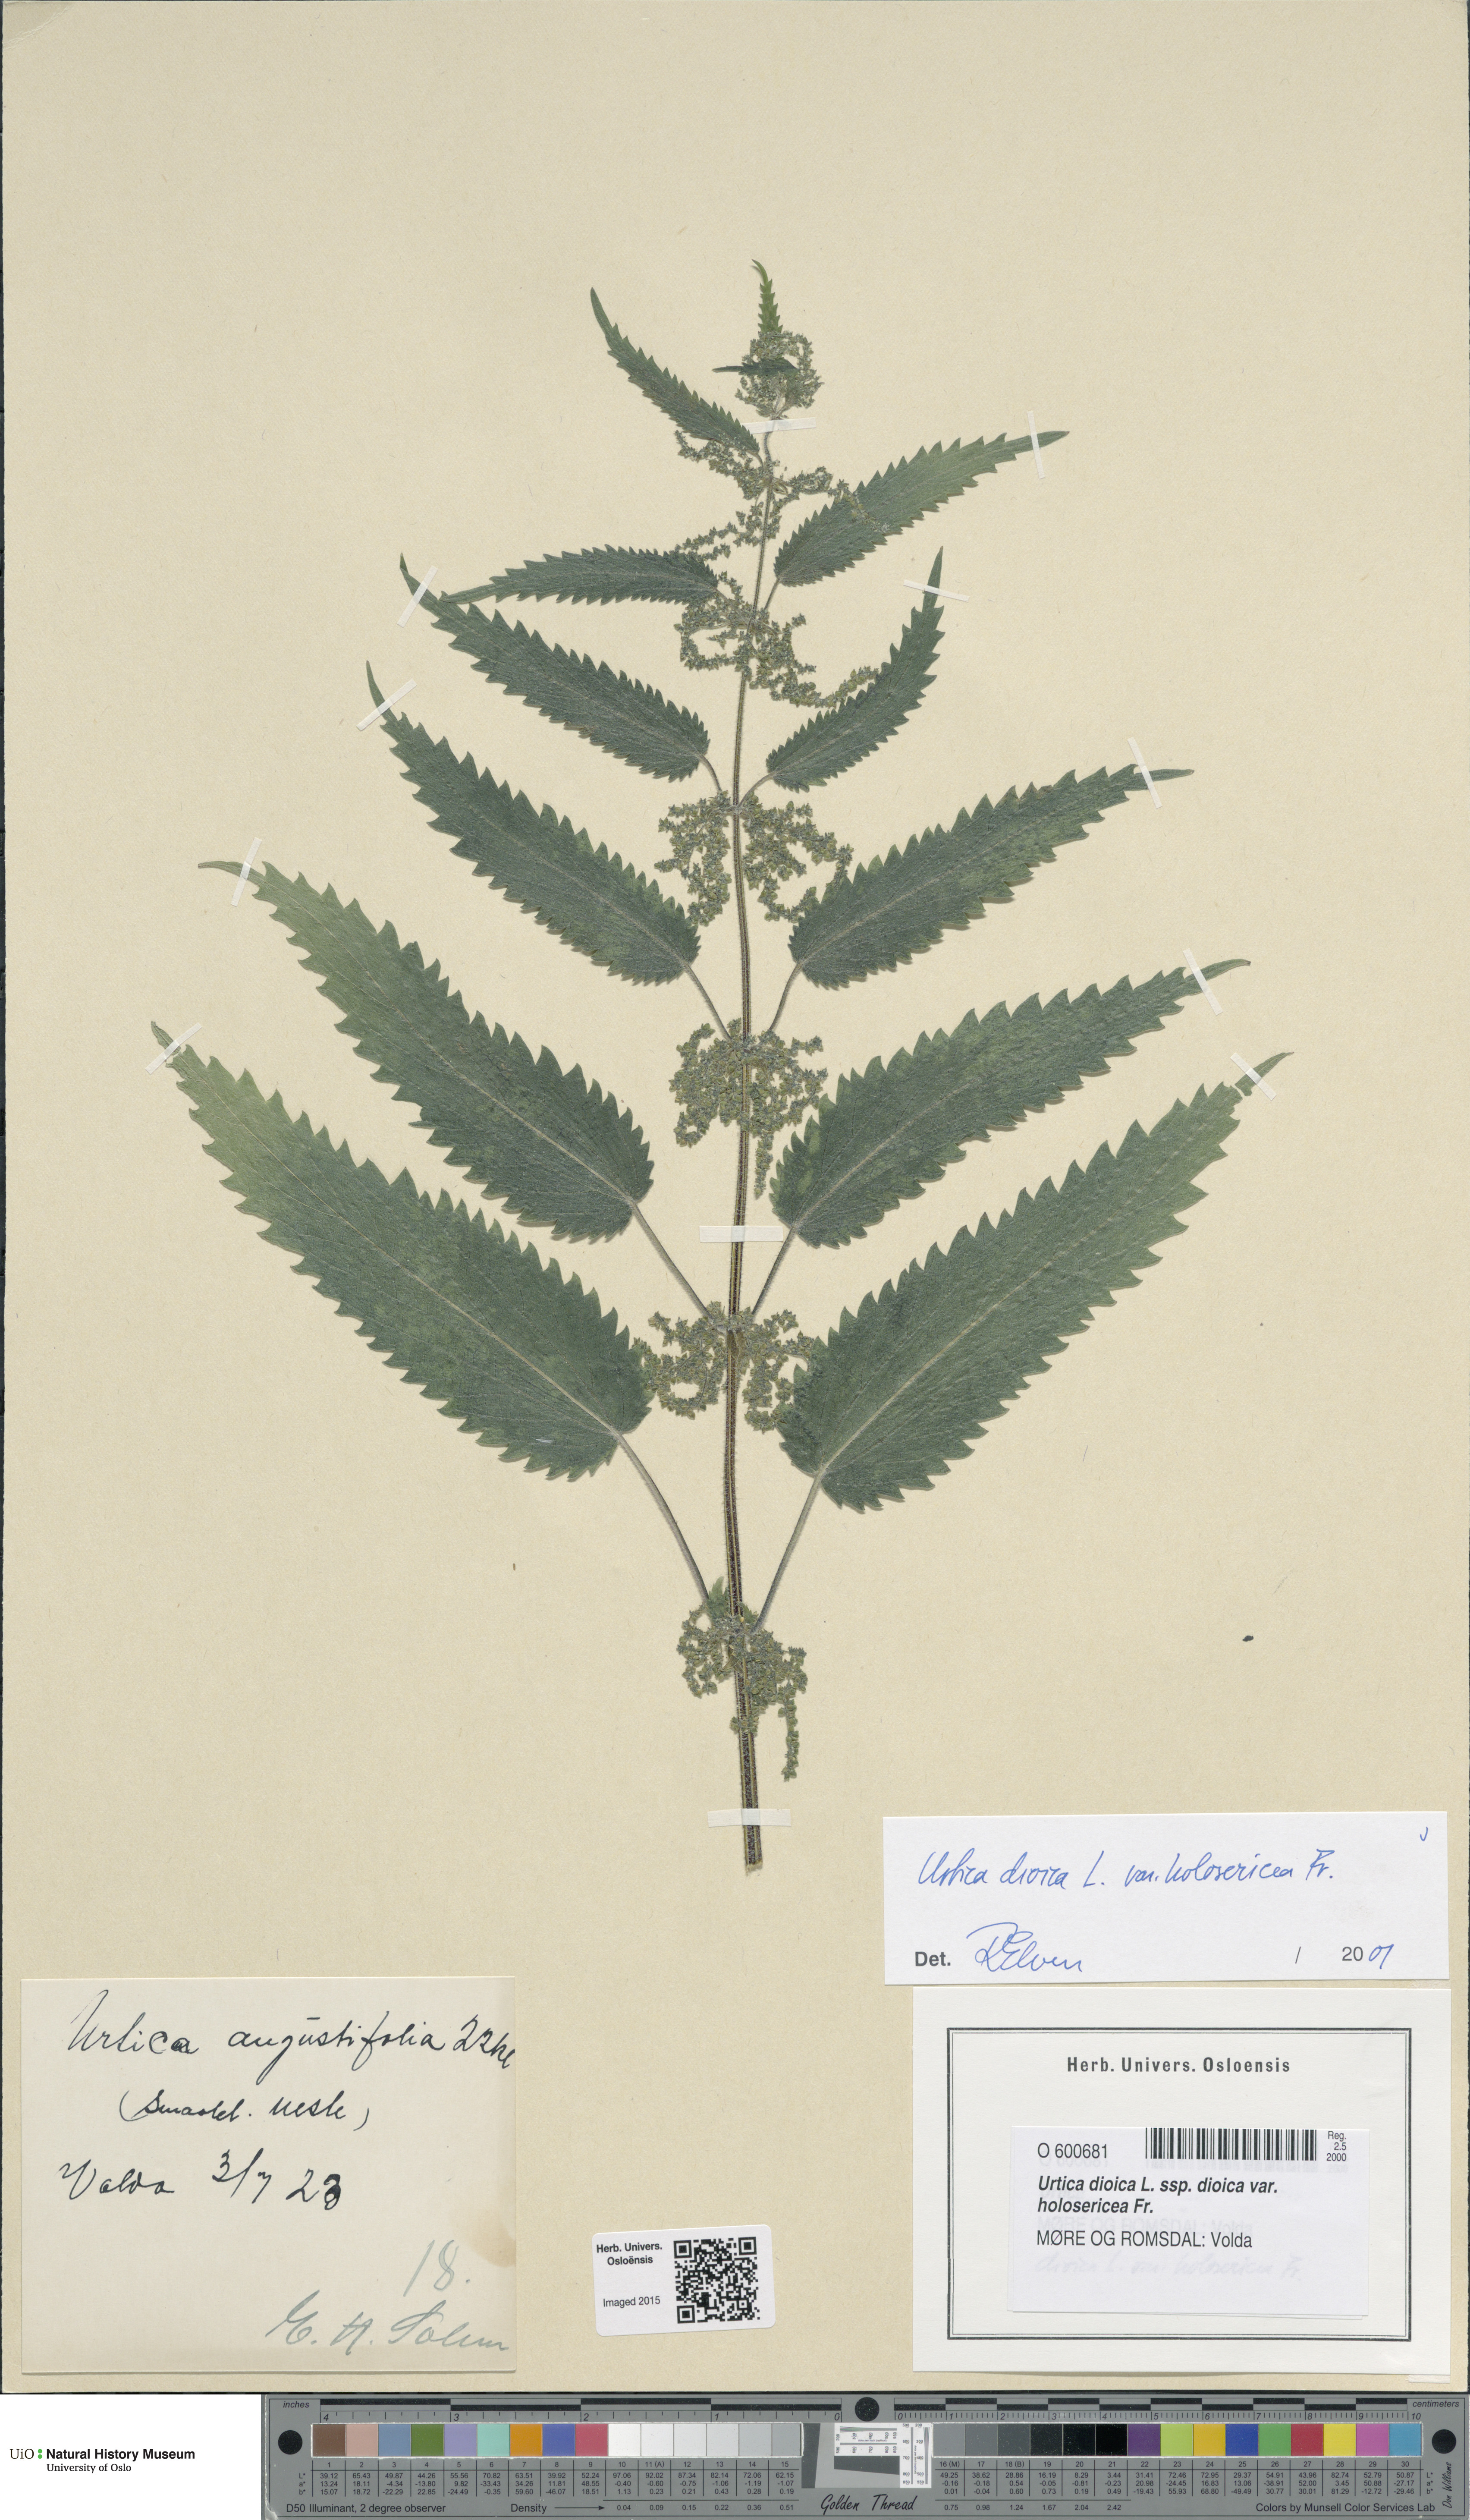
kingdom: Plantae
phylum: Tracheophyta
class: Magnoliopsida
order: Rosales
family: Urticaceae
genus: Urtica
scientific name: Urtica dioica
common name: Common nettle
